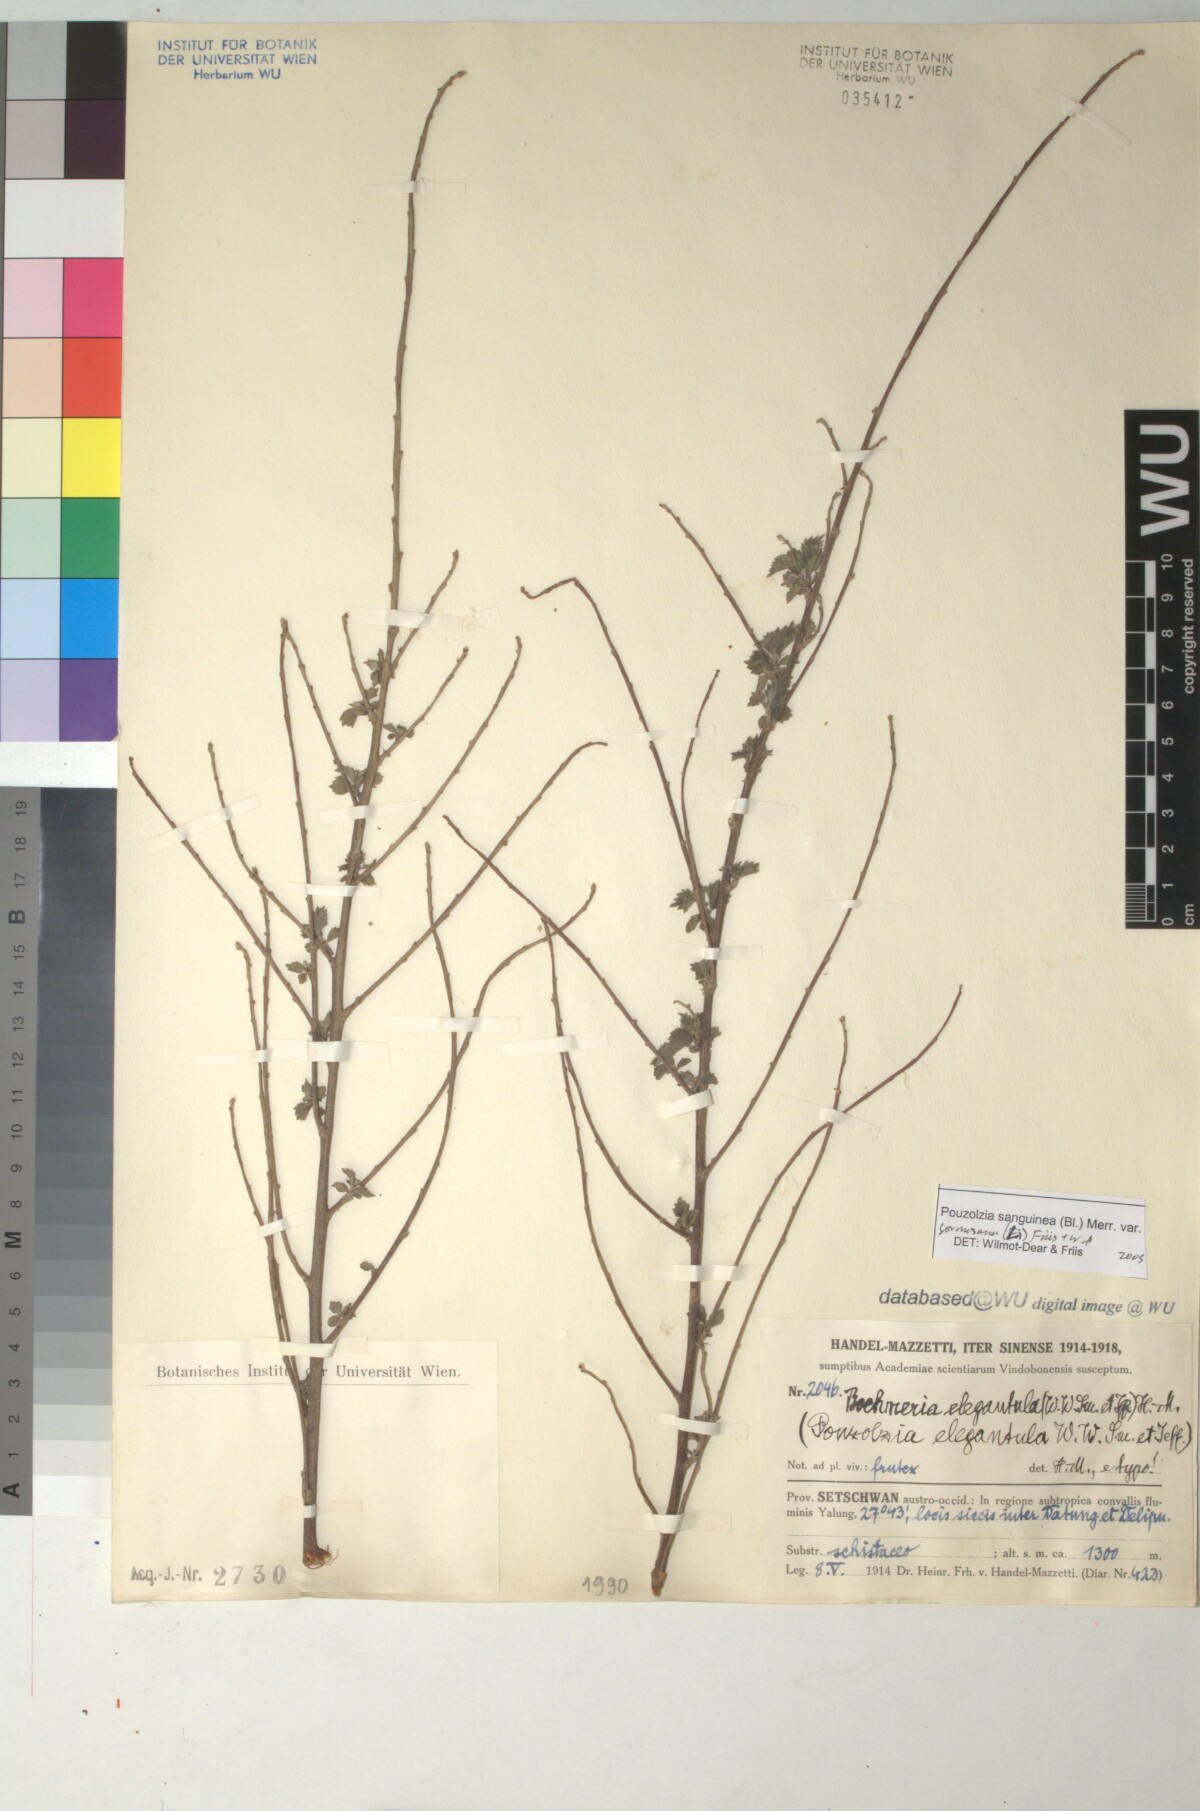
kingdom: Plantae
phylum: Tracheophyta
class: Magnoliopsida
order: Rosales
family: Urticaceae
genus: Pouzolzia
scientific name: Pouzolzia sanguinea
